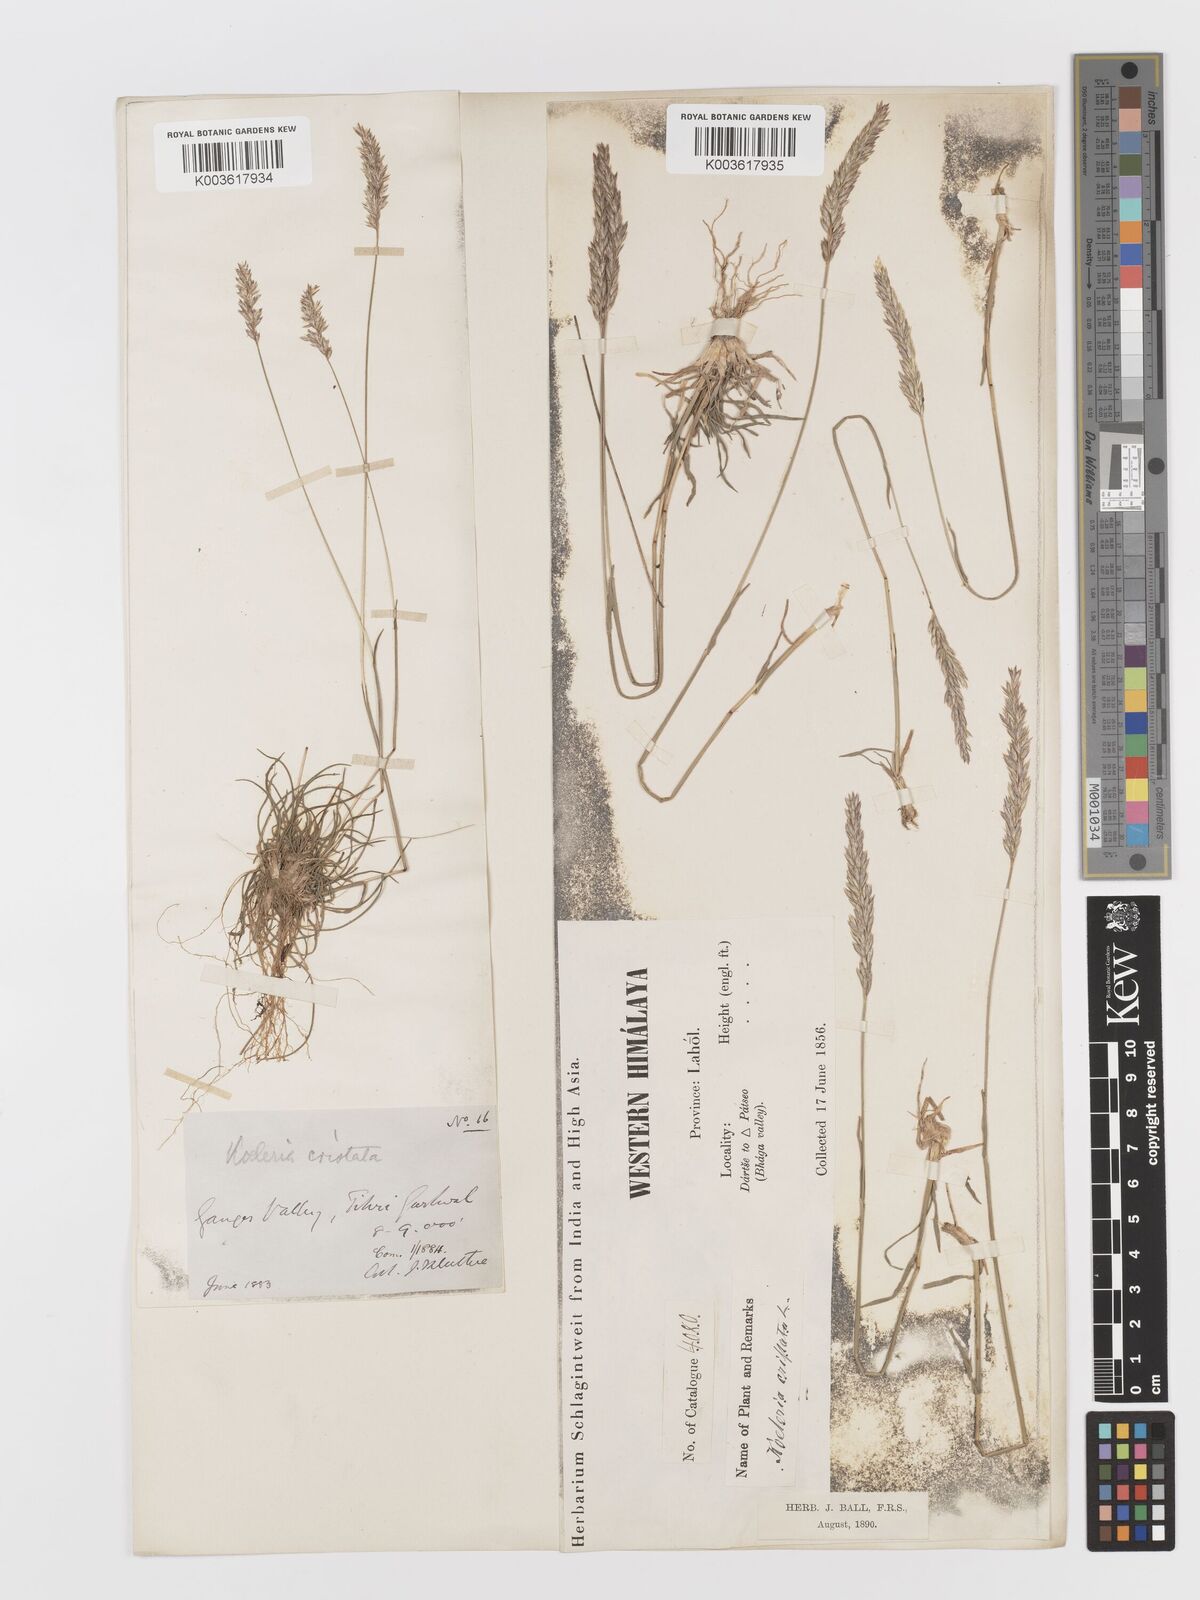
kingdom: Plantae
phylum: Tracheophyta
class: Liliopsida
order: Poales
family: Poaceae
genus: Koeleria
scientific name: Koeleria
